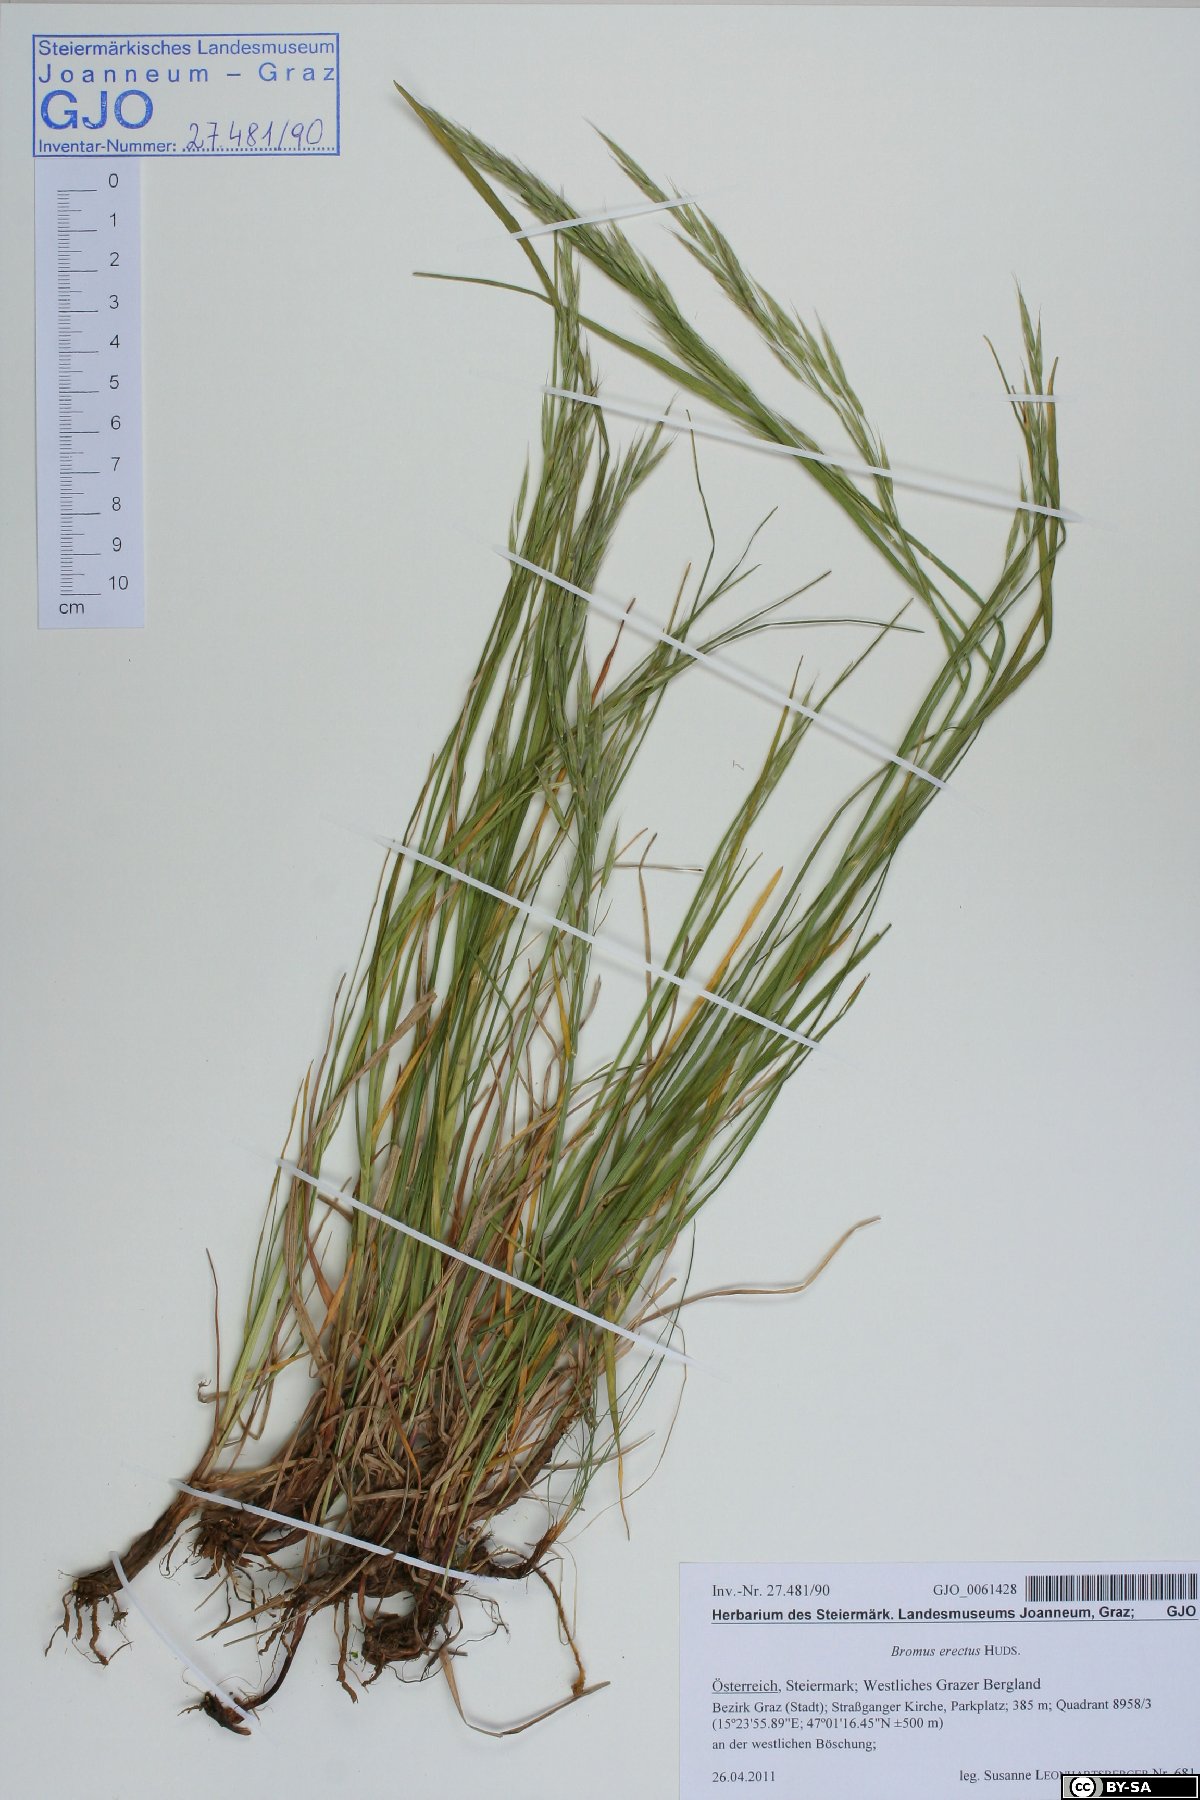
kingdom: Plantae
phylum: Tracheophyta
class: Liliopsida
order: Poales
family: Poaceae
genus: Bromus
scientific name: Bromus erectus
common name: Erect brome
